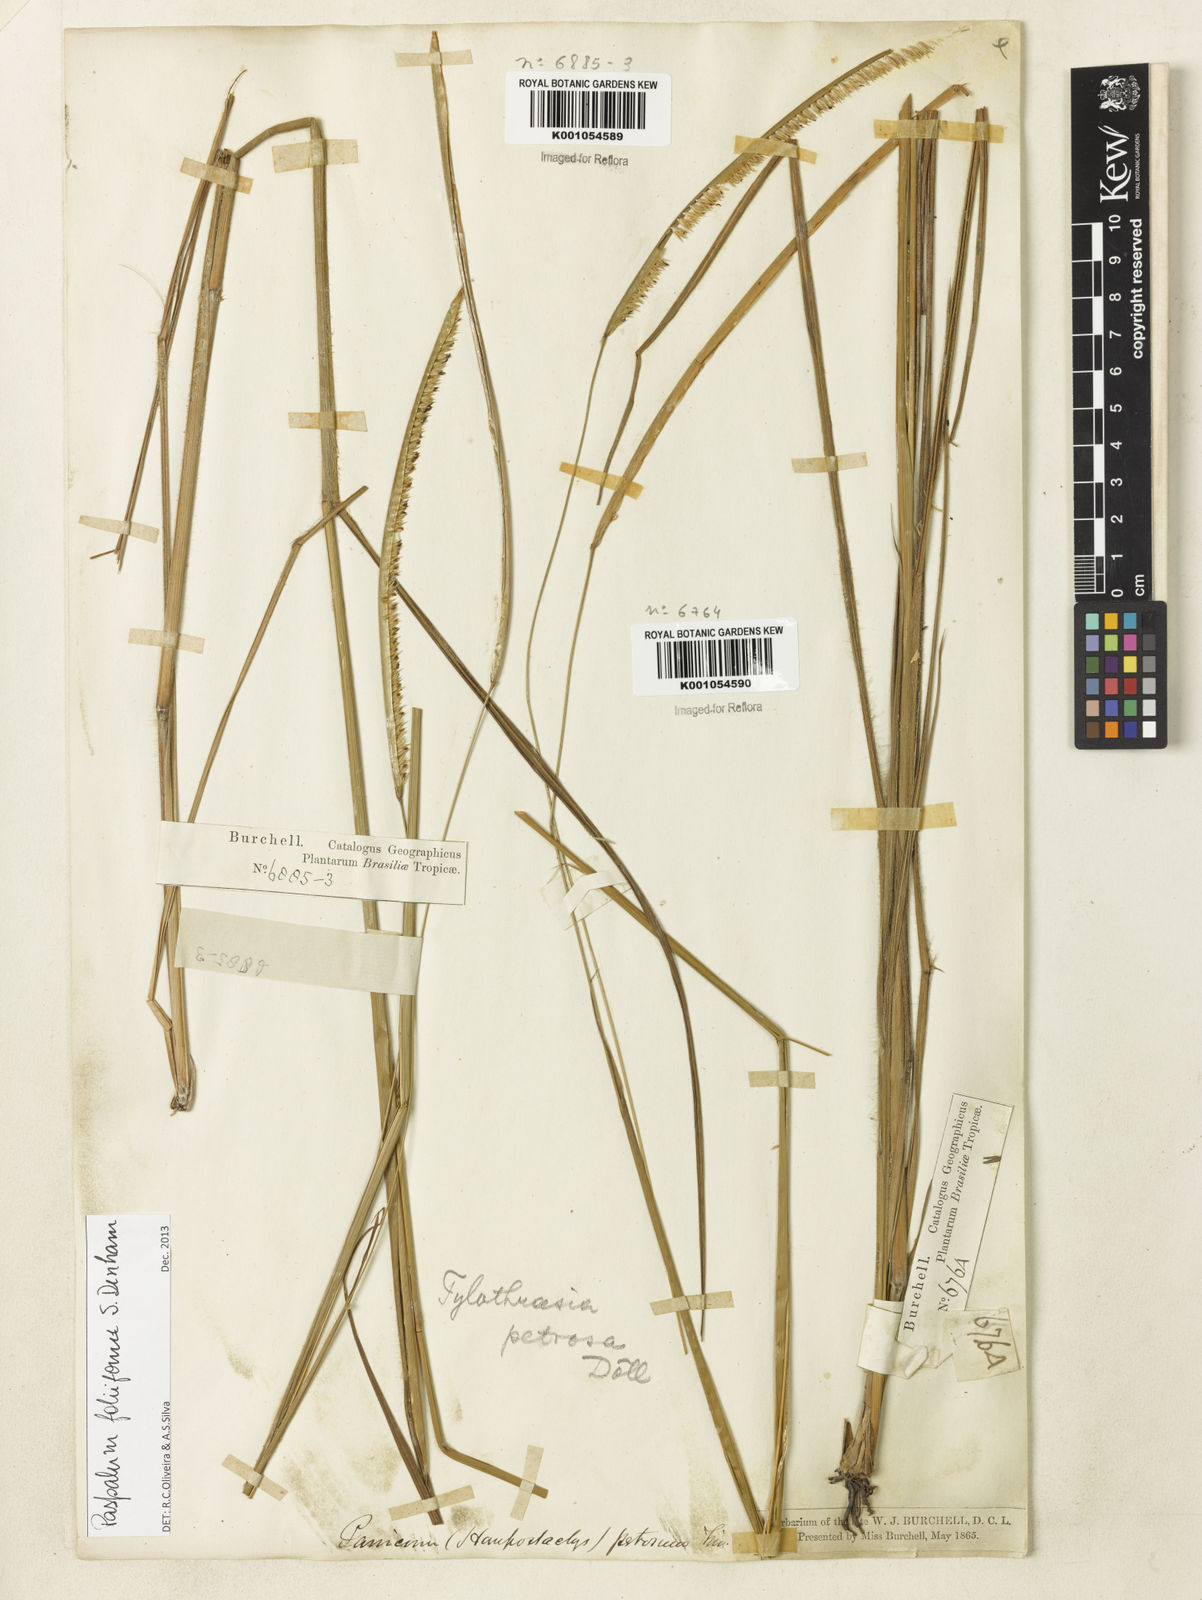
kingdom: Plantae
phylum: Tracheophyta
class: Liliopsida
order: Poales
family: Poaceae
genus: Paspalum
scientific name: Paspalum foliiforme
